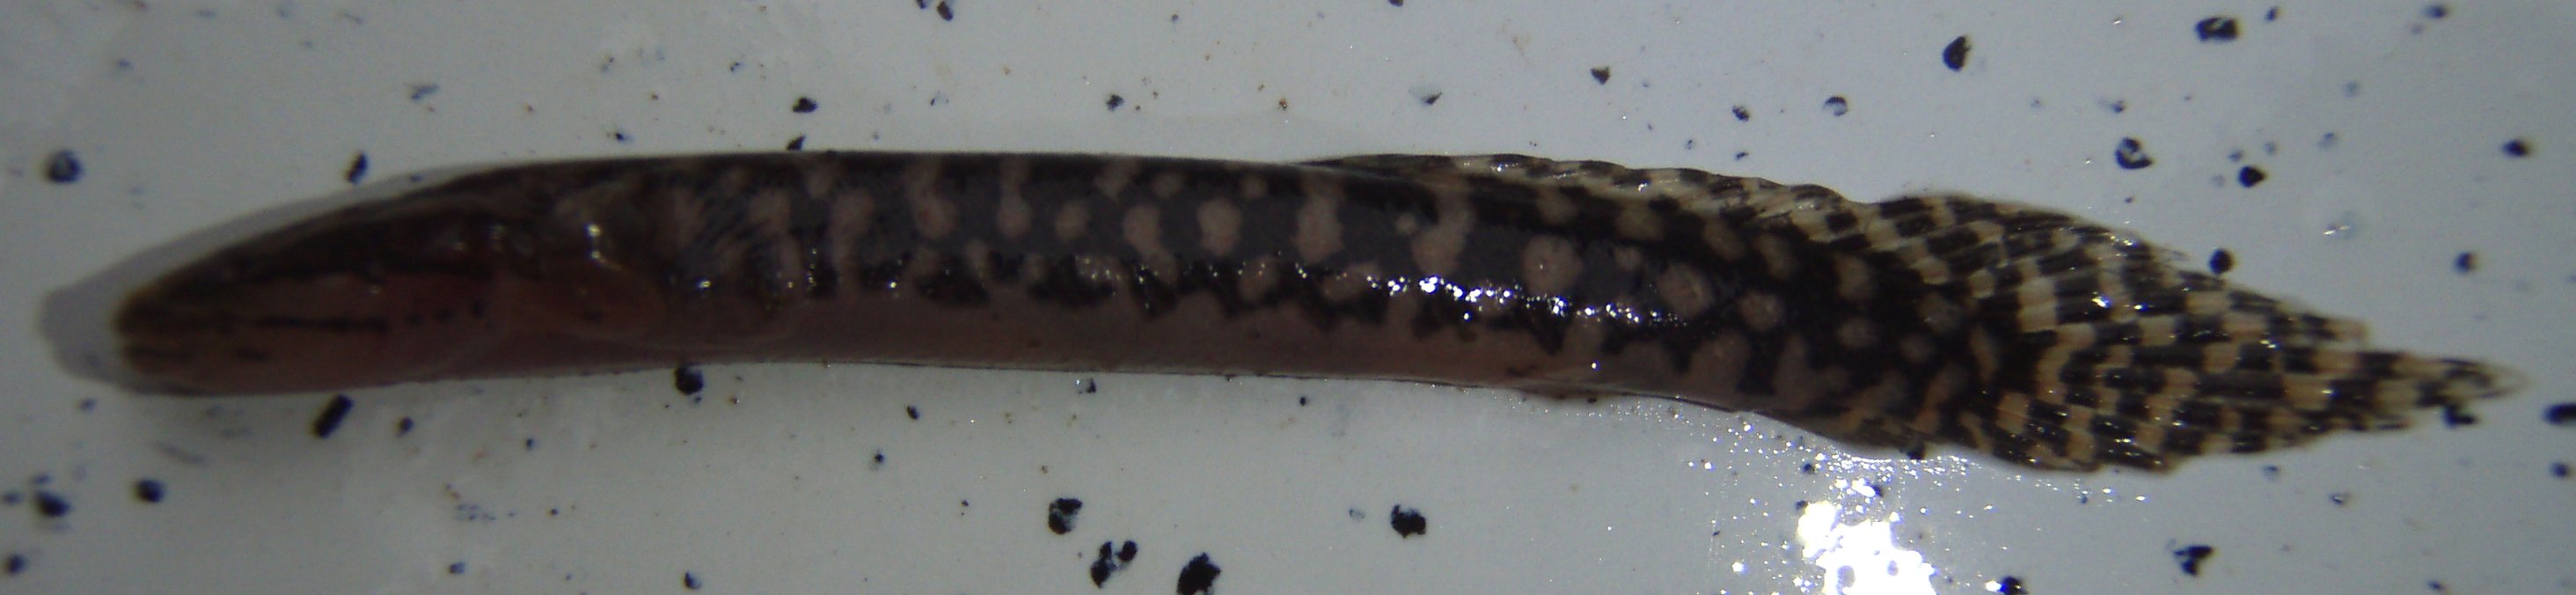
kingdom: Animalia
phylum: Chordata
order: Polypteriformes
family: Polypteridae
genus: Polypterus
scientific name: Polypterus ornatipinnis
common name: Ornate bichir
